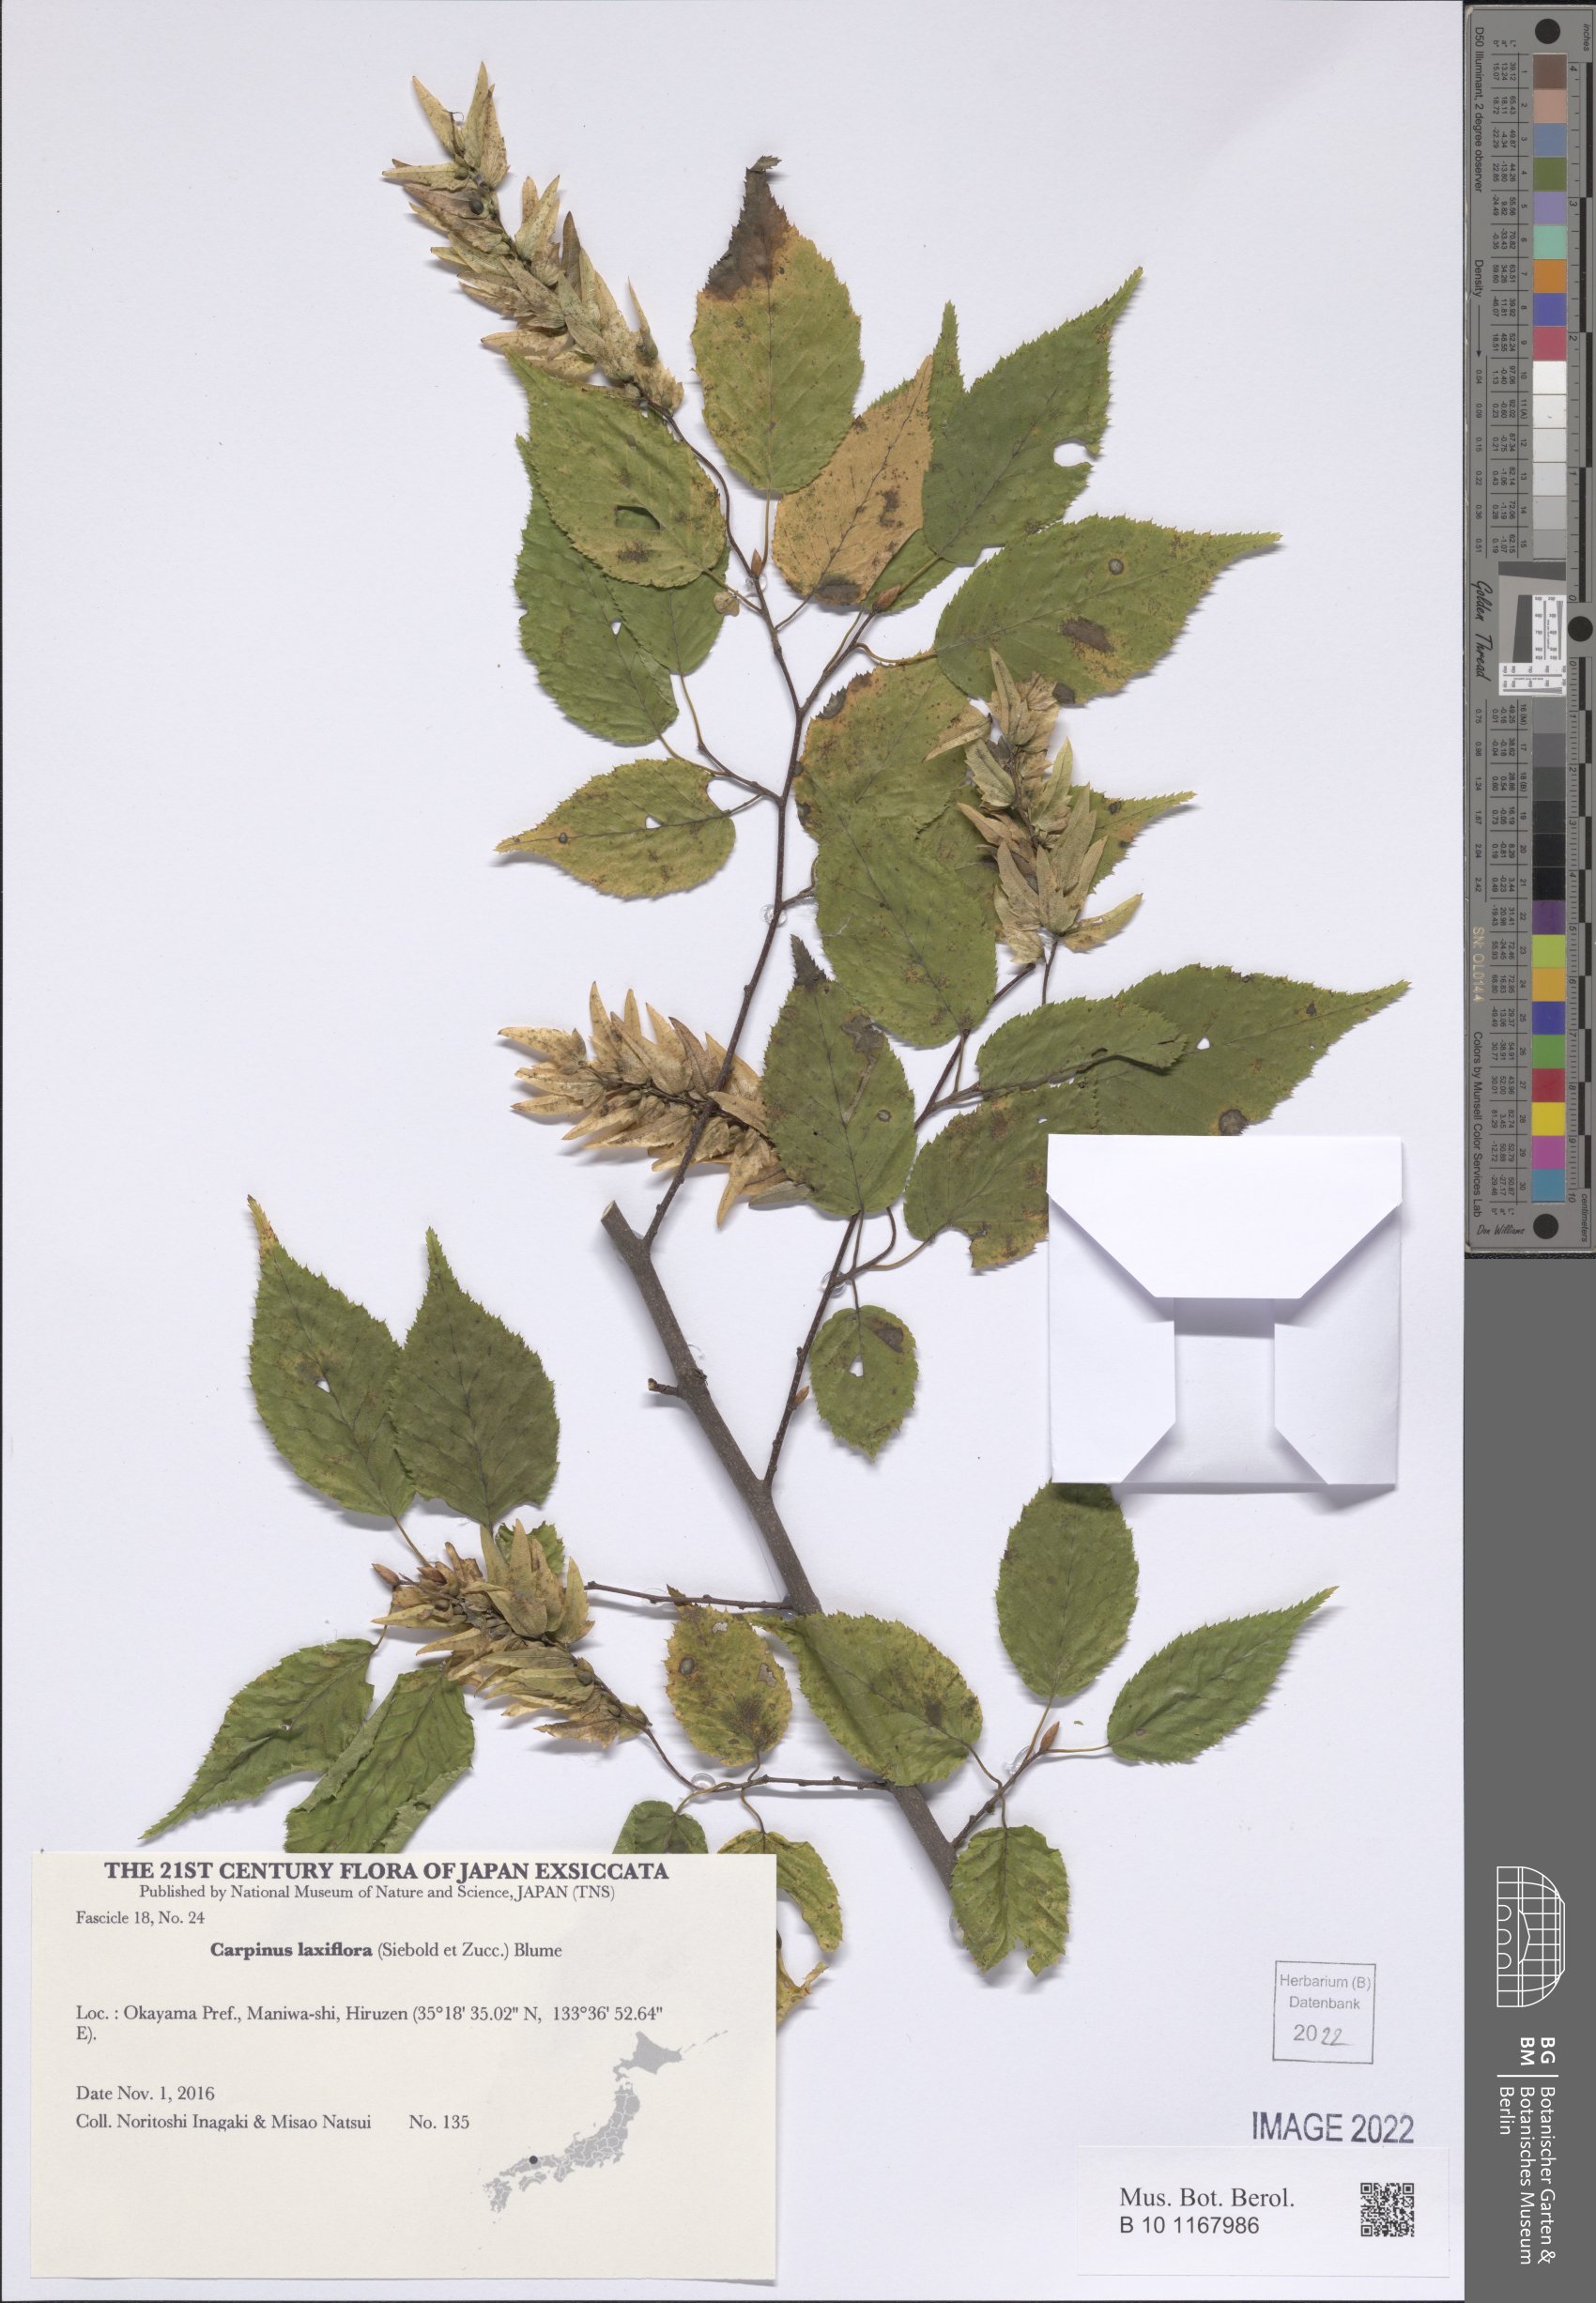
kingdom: Plantae
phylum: Tracheophyta
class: Magnoliopsida
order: Fagales
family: Betulaceae
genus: Carpinus
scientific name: Carpinus laxiflora
